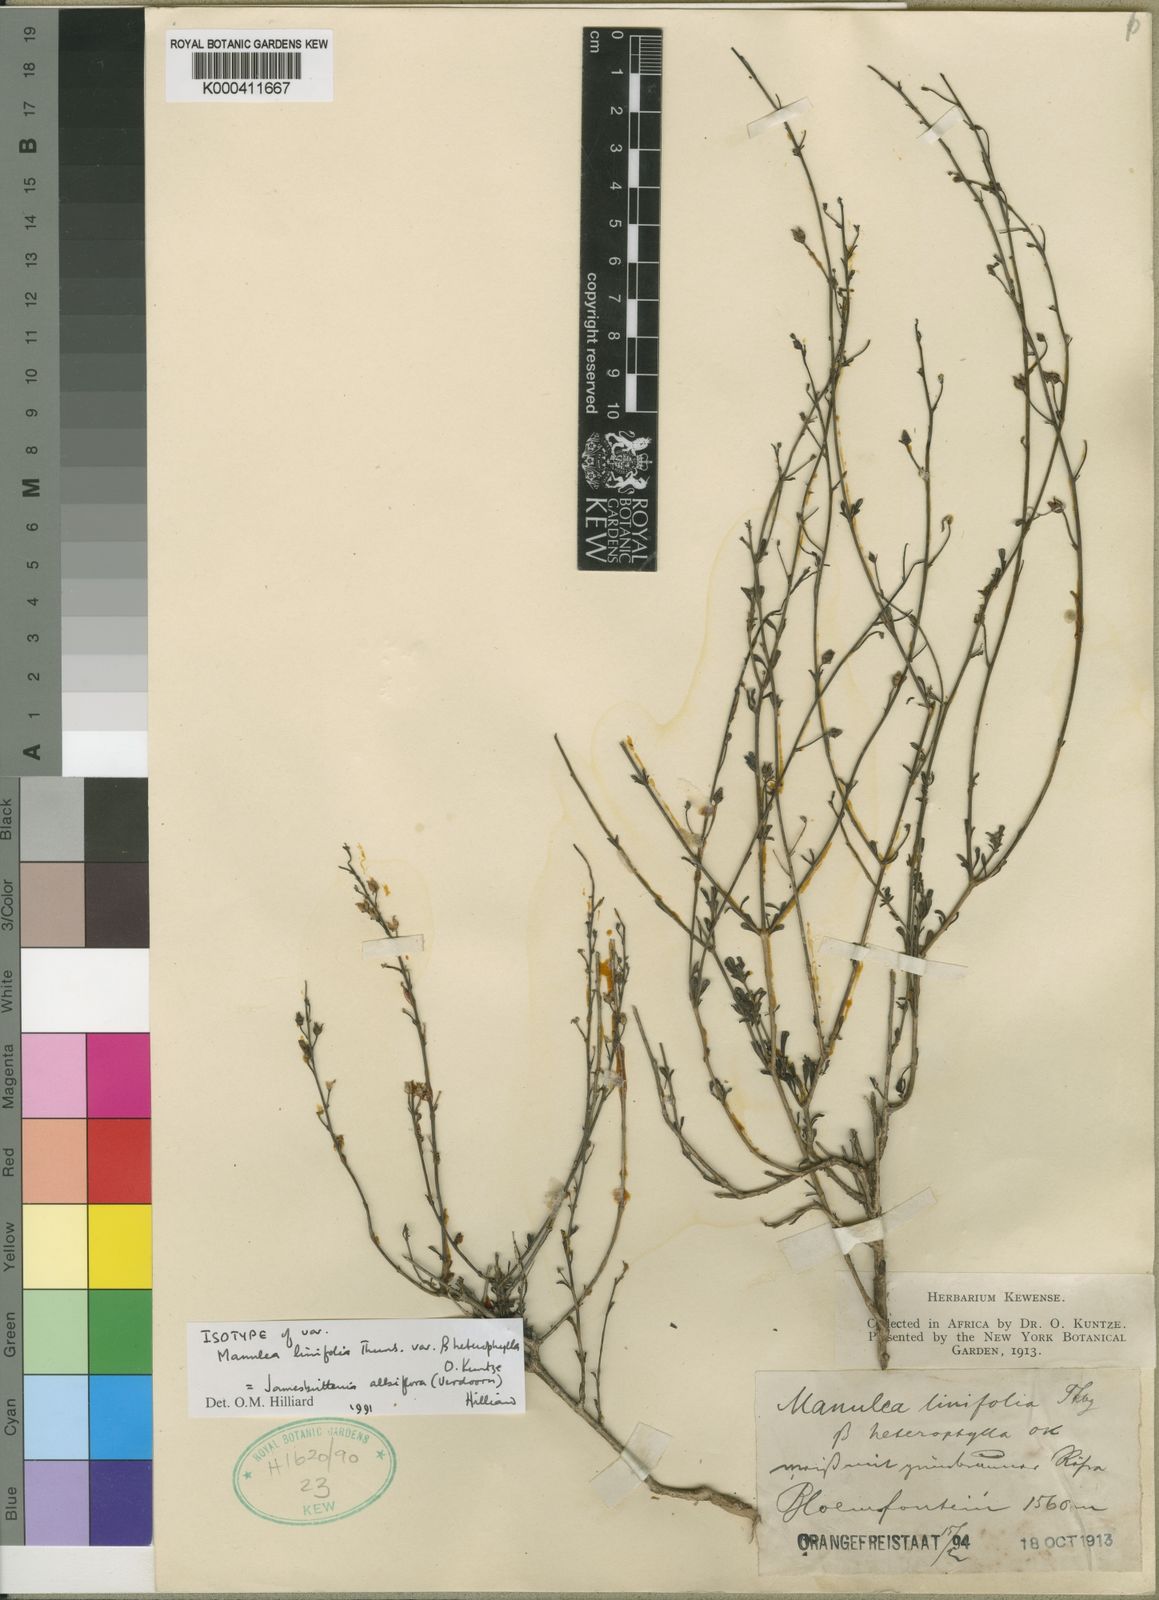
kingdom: Plantae
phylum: Tracheophyta
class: Magnoliopsida
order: Lamiales
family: Scrophulariaceae
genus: Jamesbrittenia
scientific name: Jamesbrittenia albiflora
